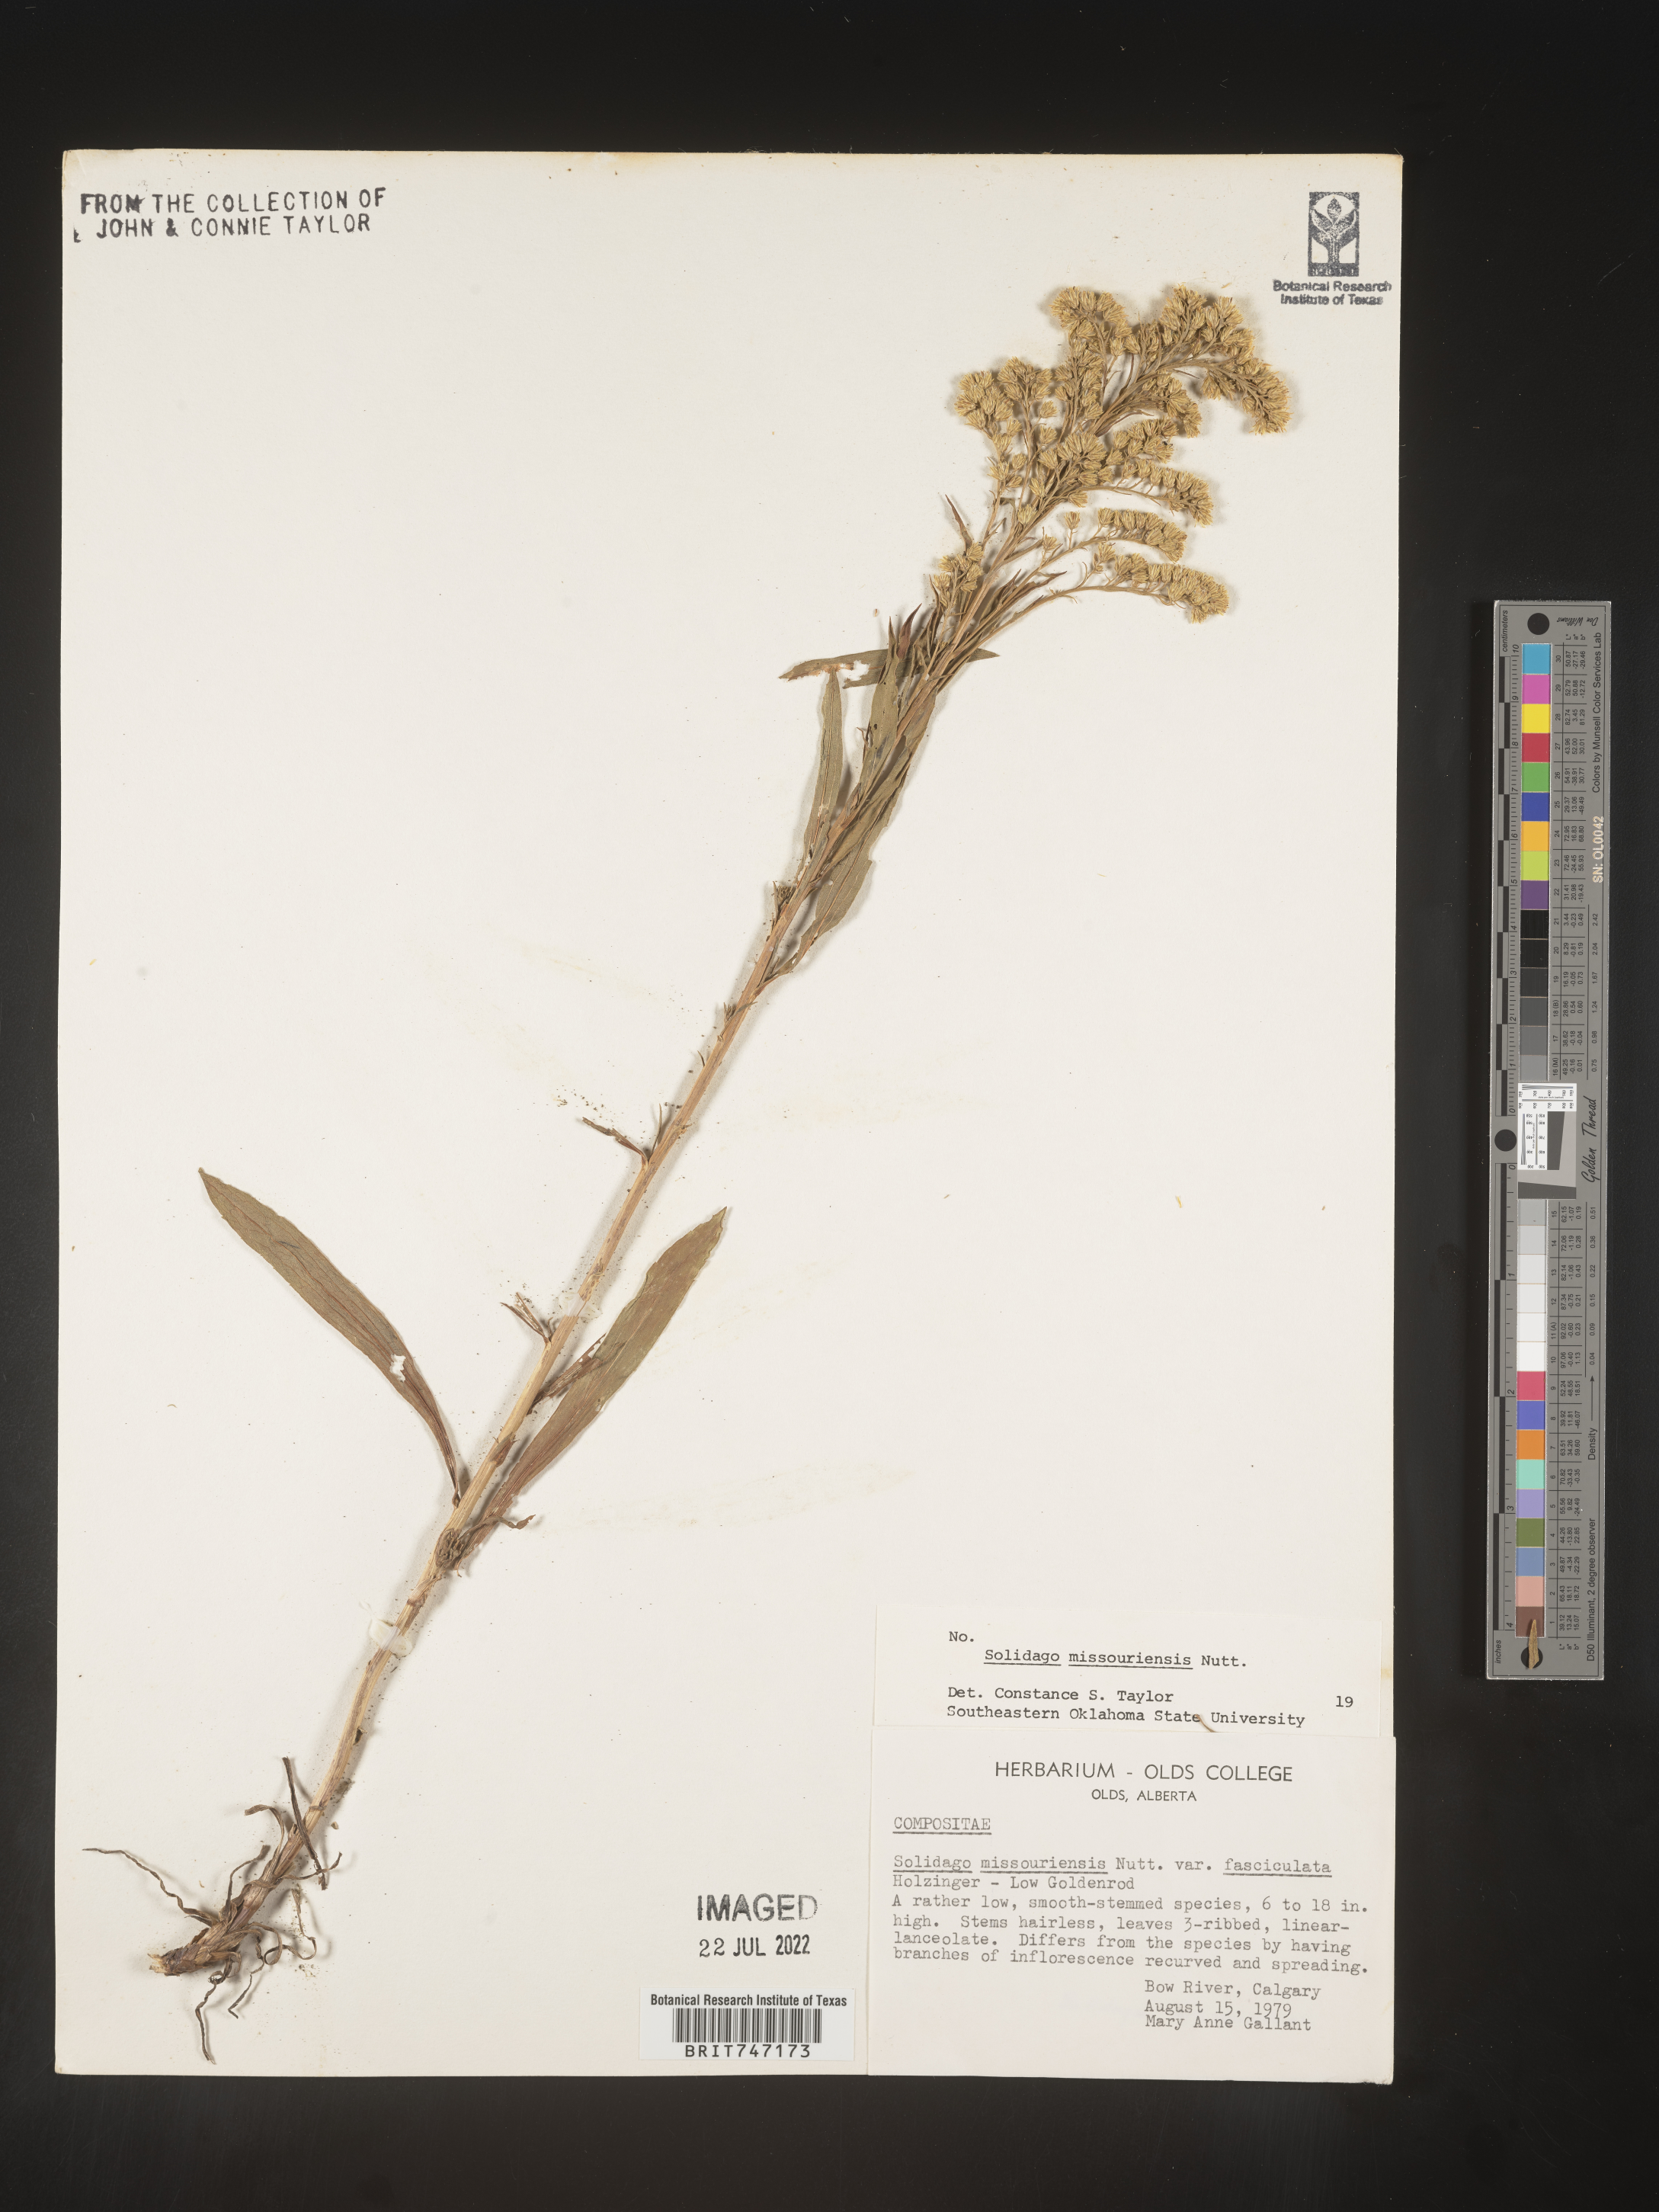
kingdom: Plantae
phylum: Tracheophyta
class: Magnoliopsida
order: Asterales
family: Asteraceae
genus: Solidago
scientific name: Solidago missouriensis
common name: Prairie goldenrod
